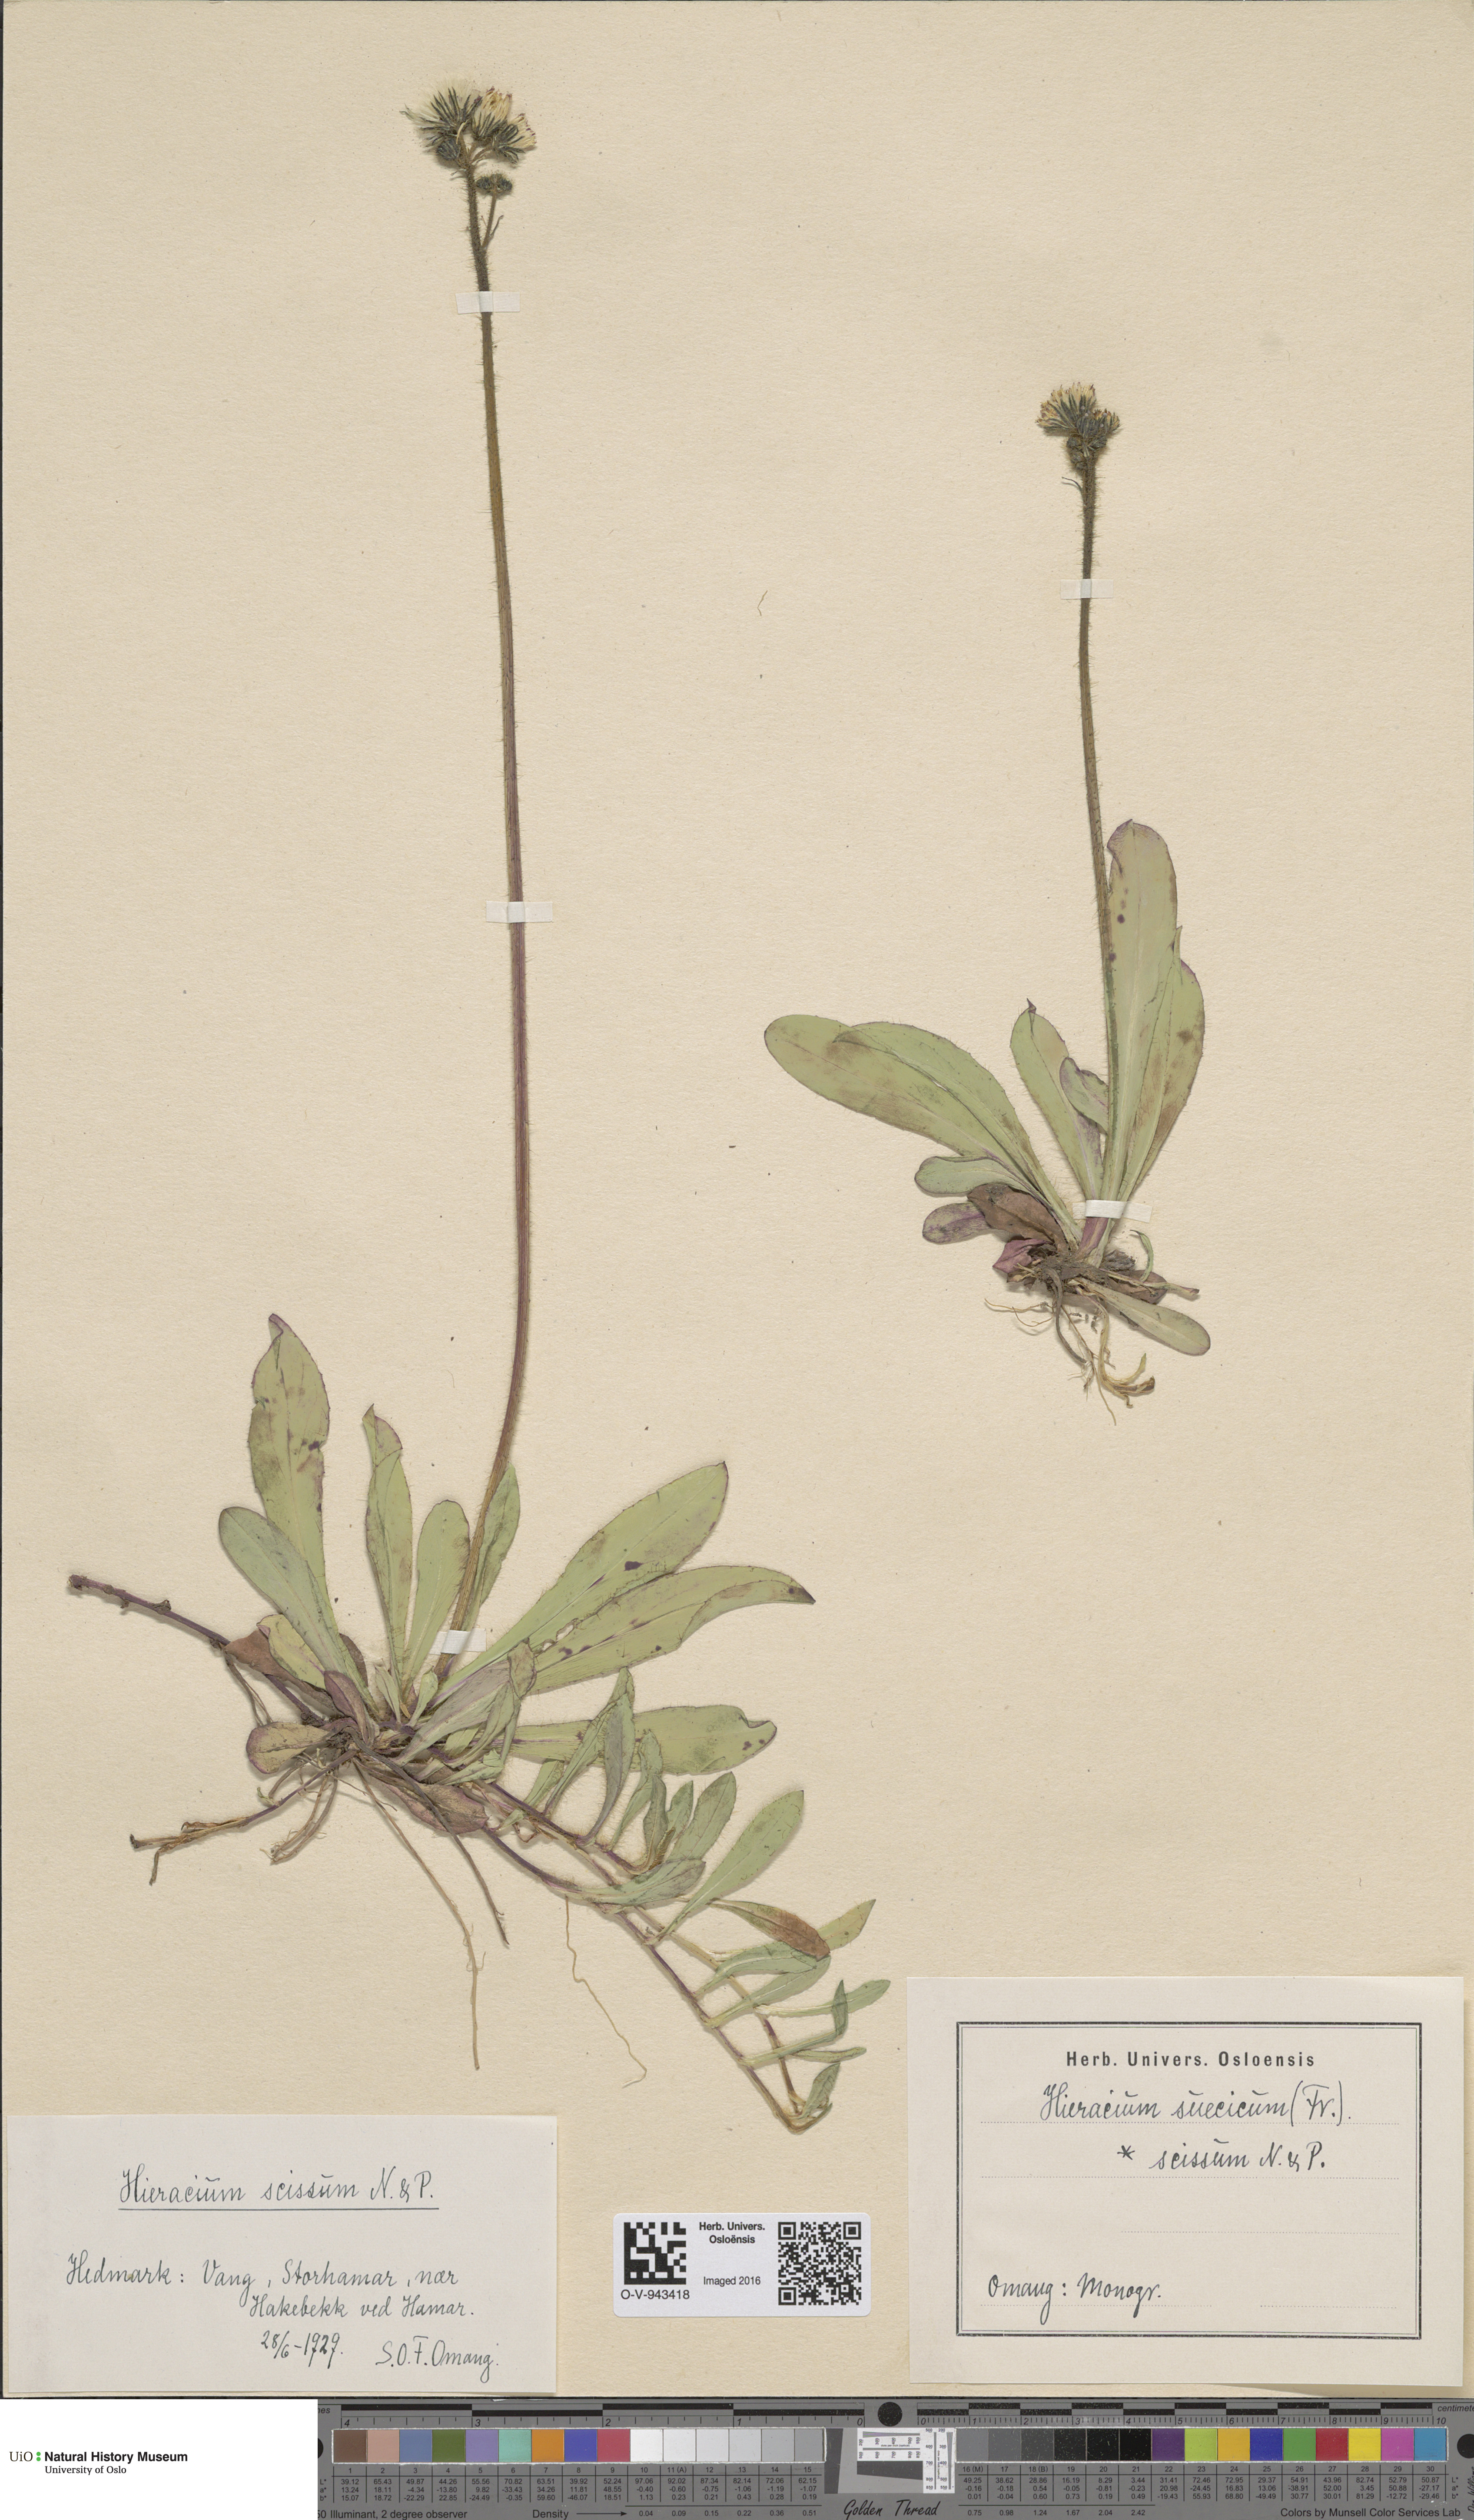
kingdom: Plantae
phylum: Tracheophyta
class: Magnoliopsida
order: Asterales
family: Asteraceae
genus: Pilosella
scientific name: Pilosella dubia
